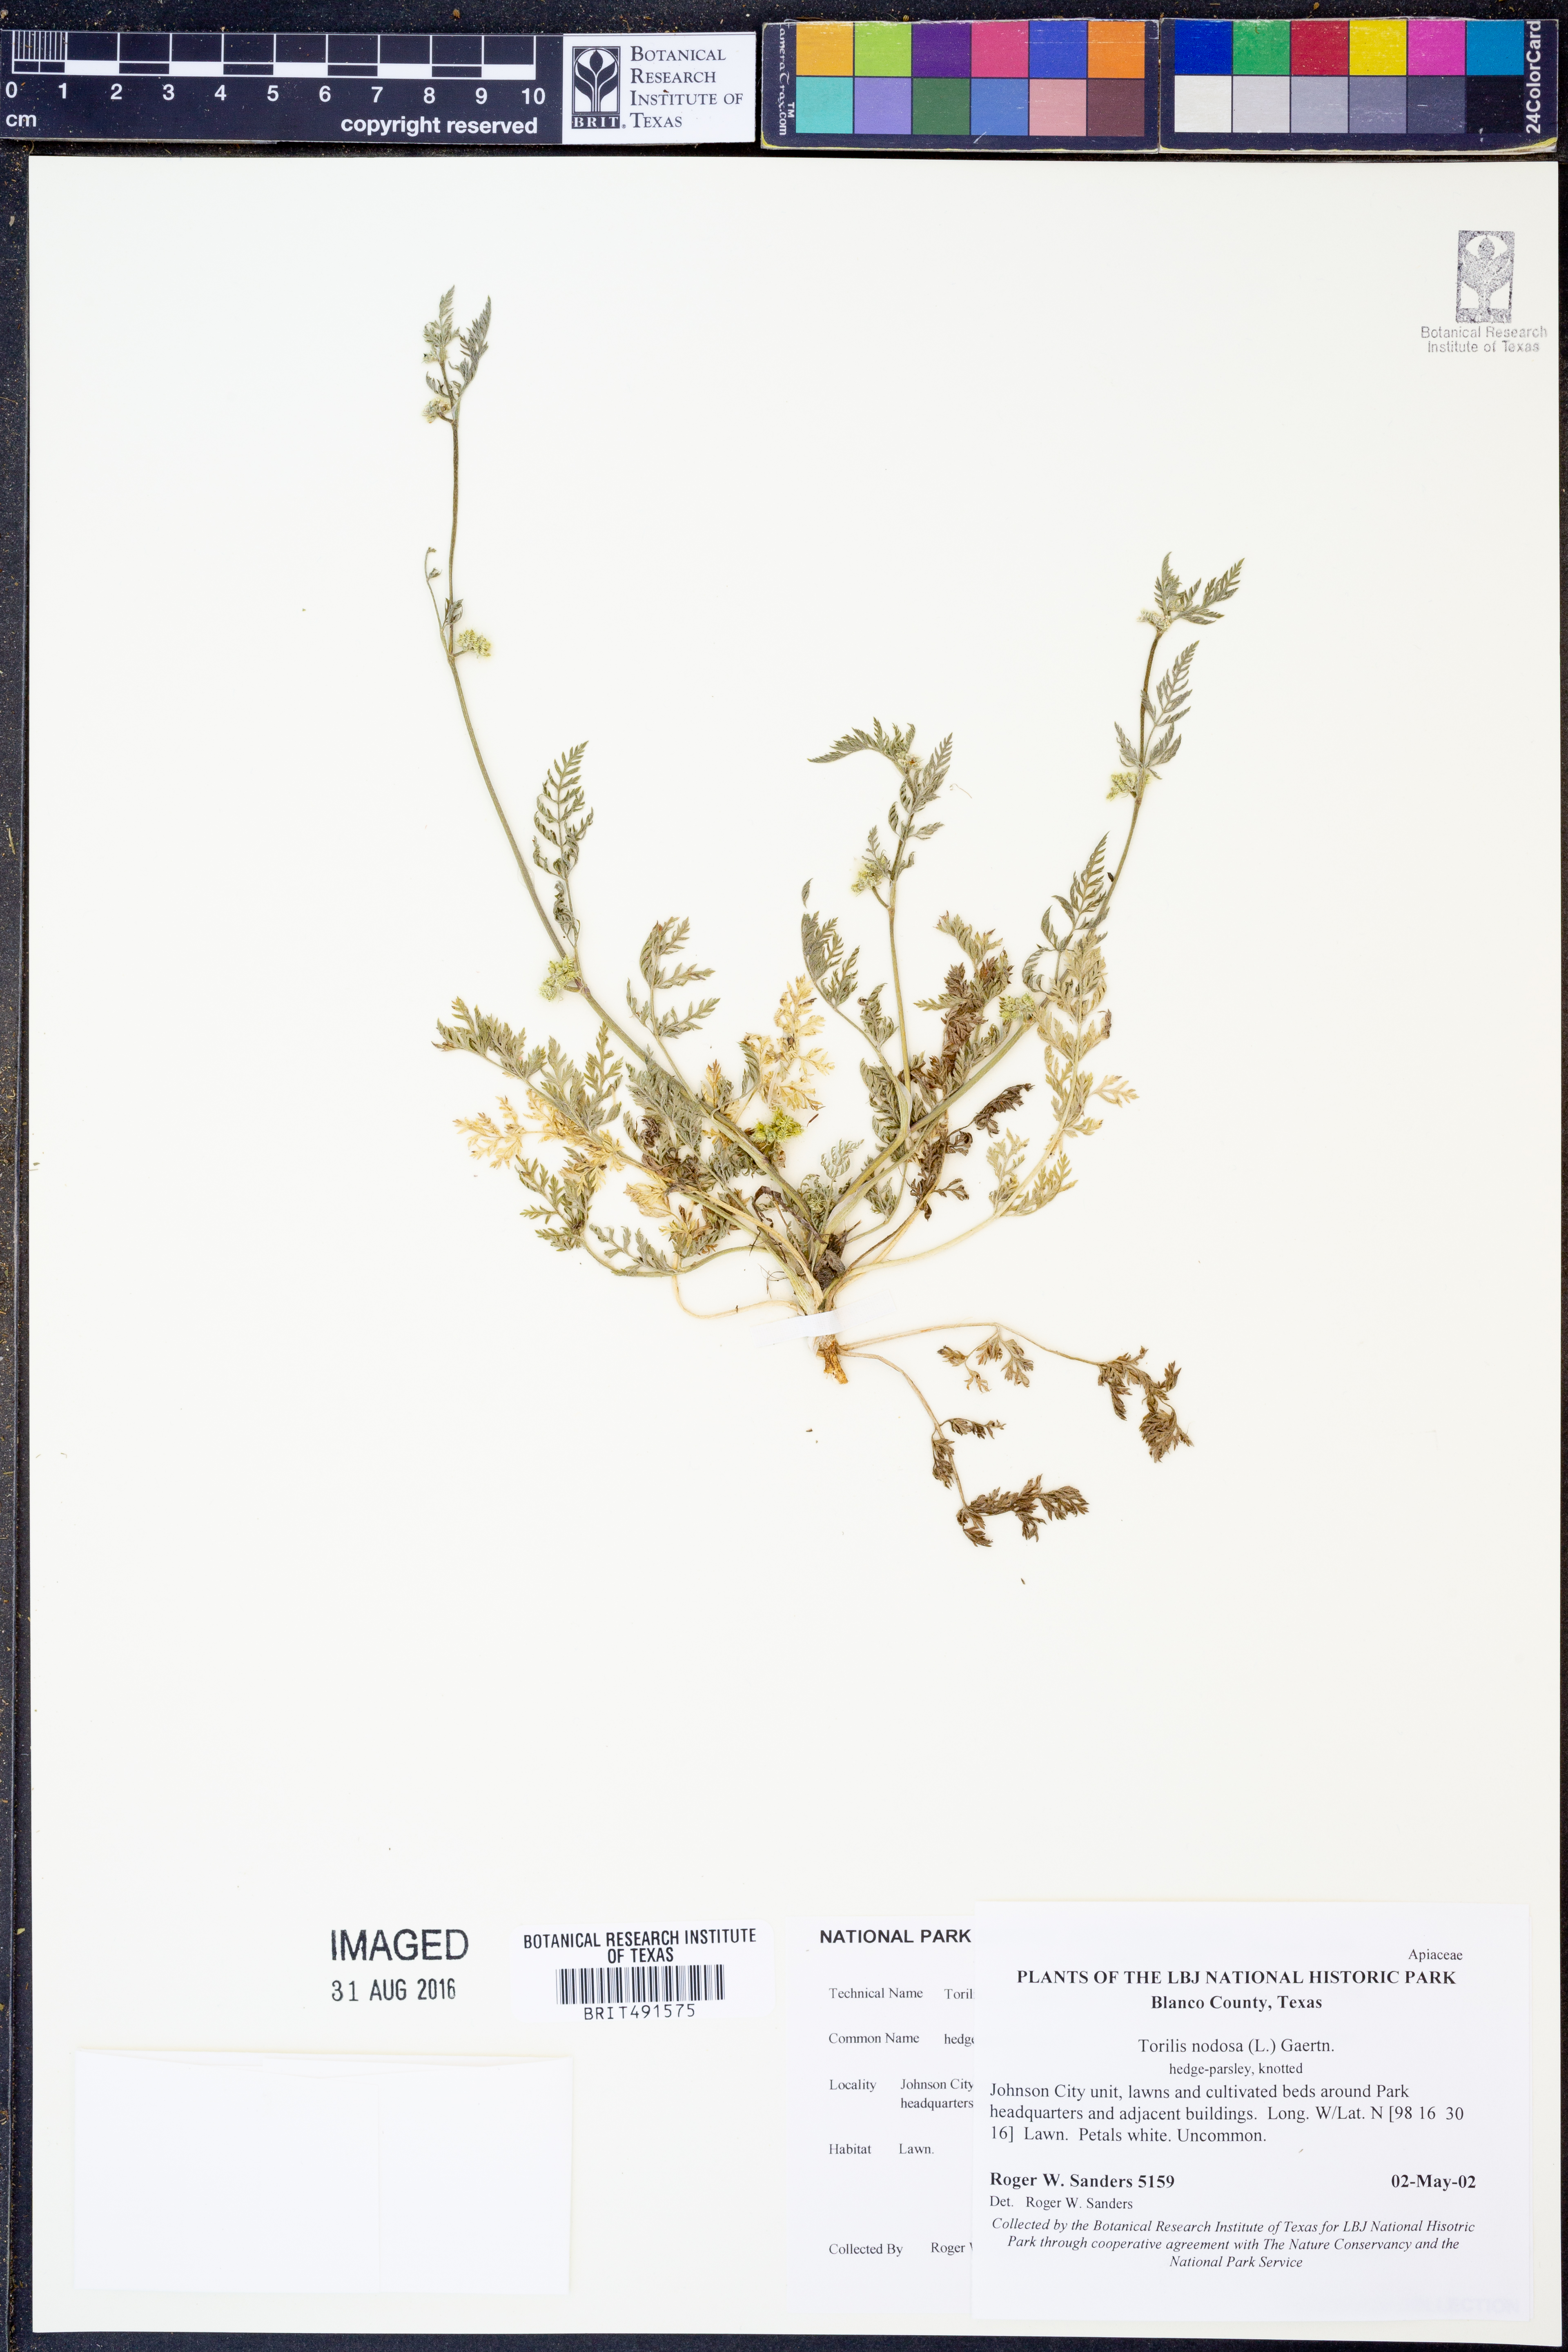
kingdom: Plantae
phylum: Tracheophyta
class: Magnoliopsida
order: Apiales
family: Apiaceae
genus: Torilis
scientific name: Torilis nodosa
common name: Knotted hedge-parsley
